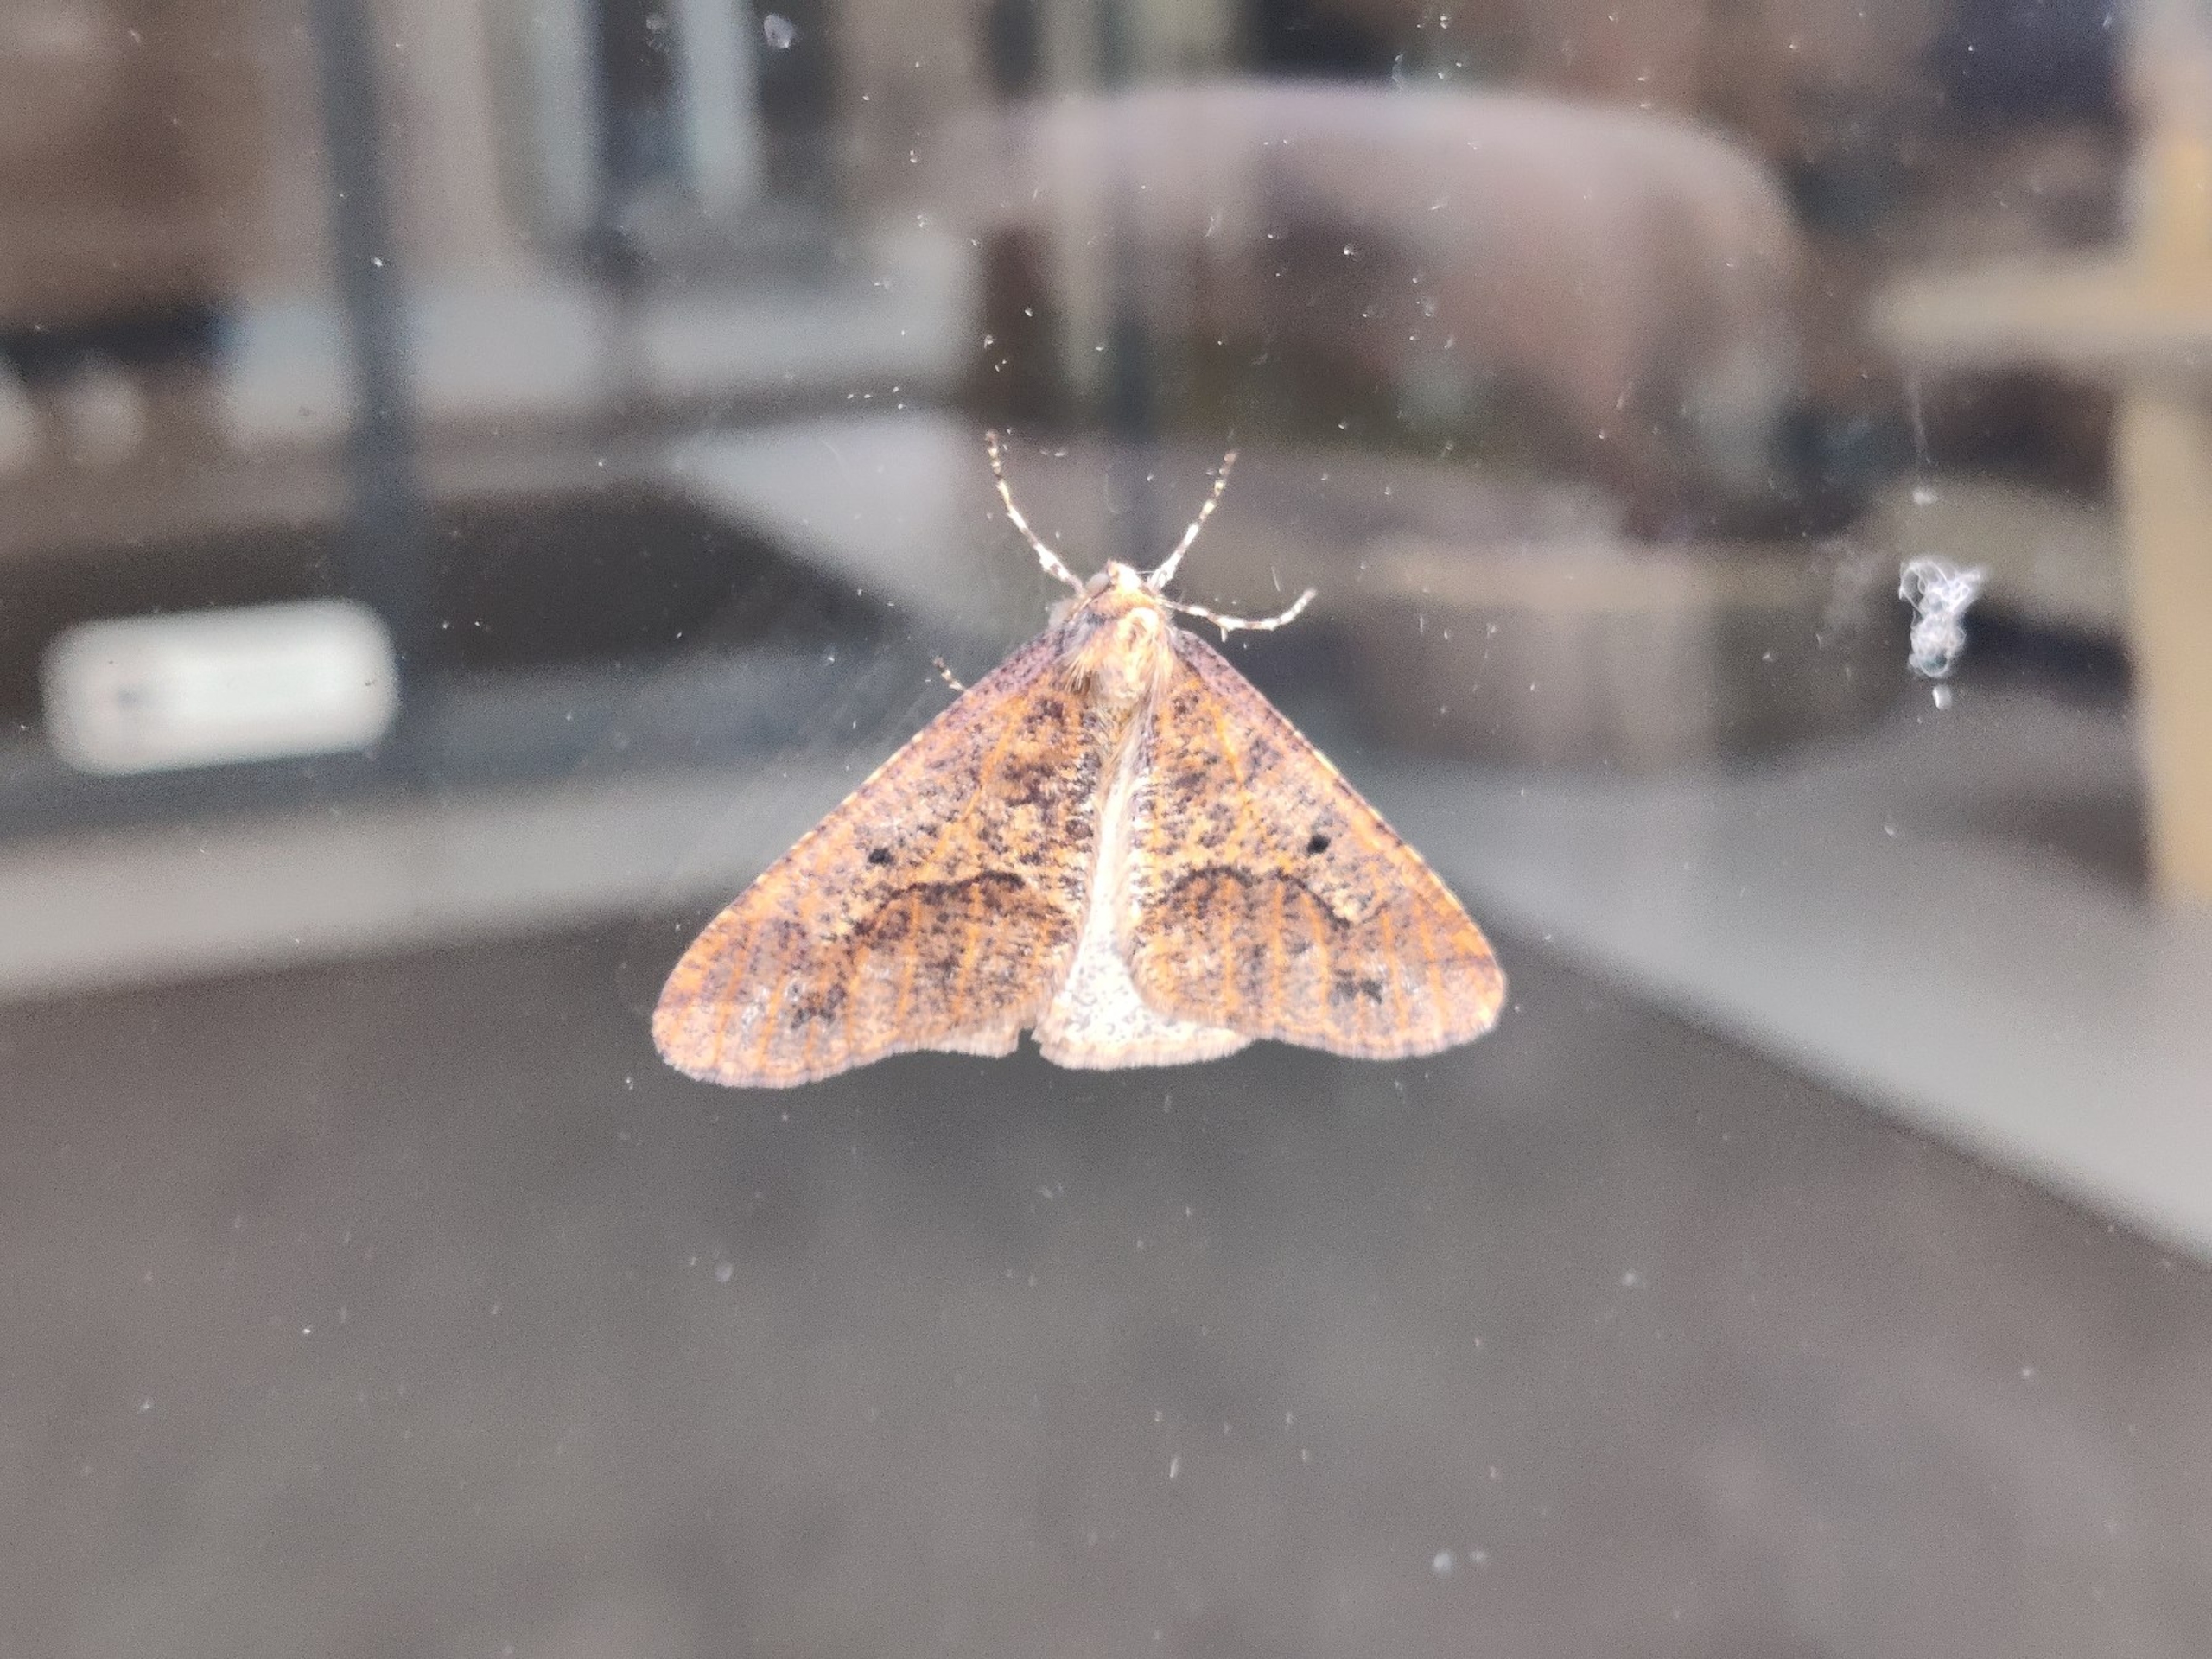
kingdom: Animalia
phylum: Arthropoda
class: Insecta
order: Lepidoptera
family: Geometridae
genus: Erannis
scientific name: Erannis defoliaria
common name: Stor frostmåler
